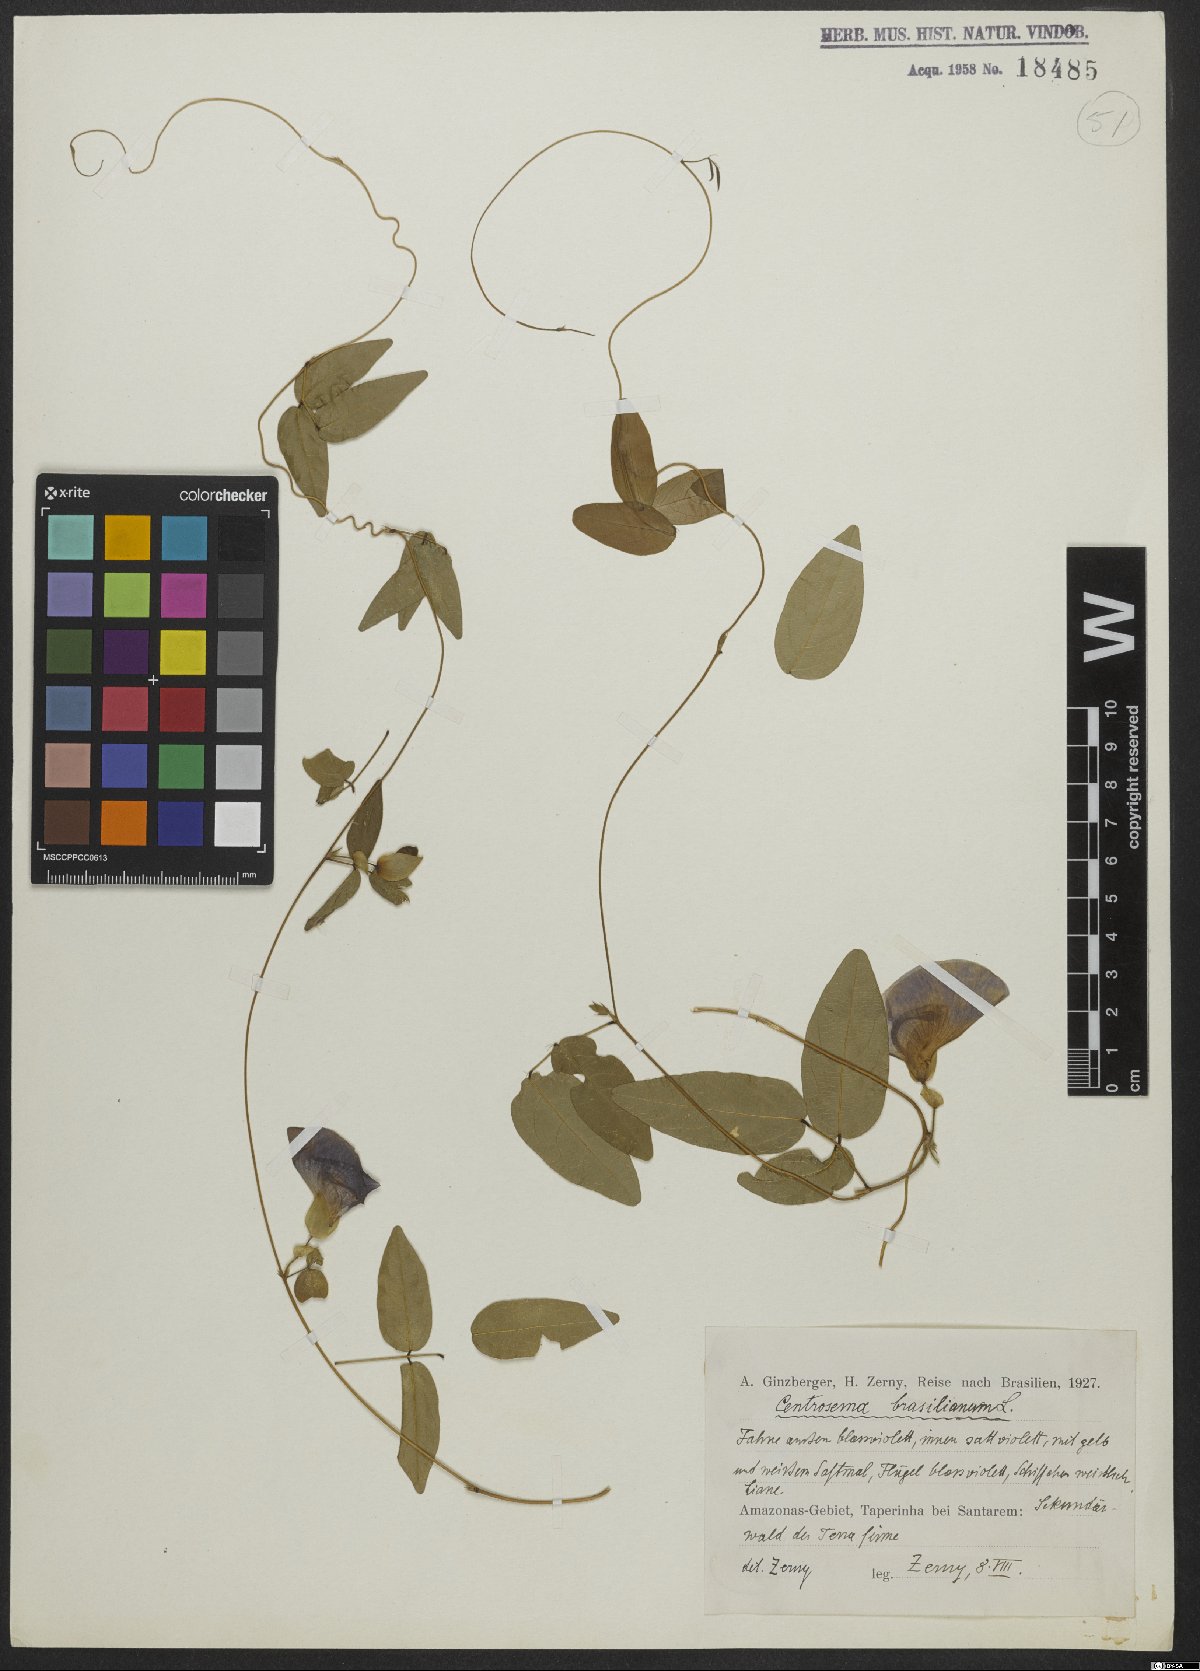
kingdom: Plantae
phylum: Tracheophyta
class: Magnoliopsida
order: Fabales
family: Fabaceae
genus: Centrosema
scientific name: Centrosema brasilianum
